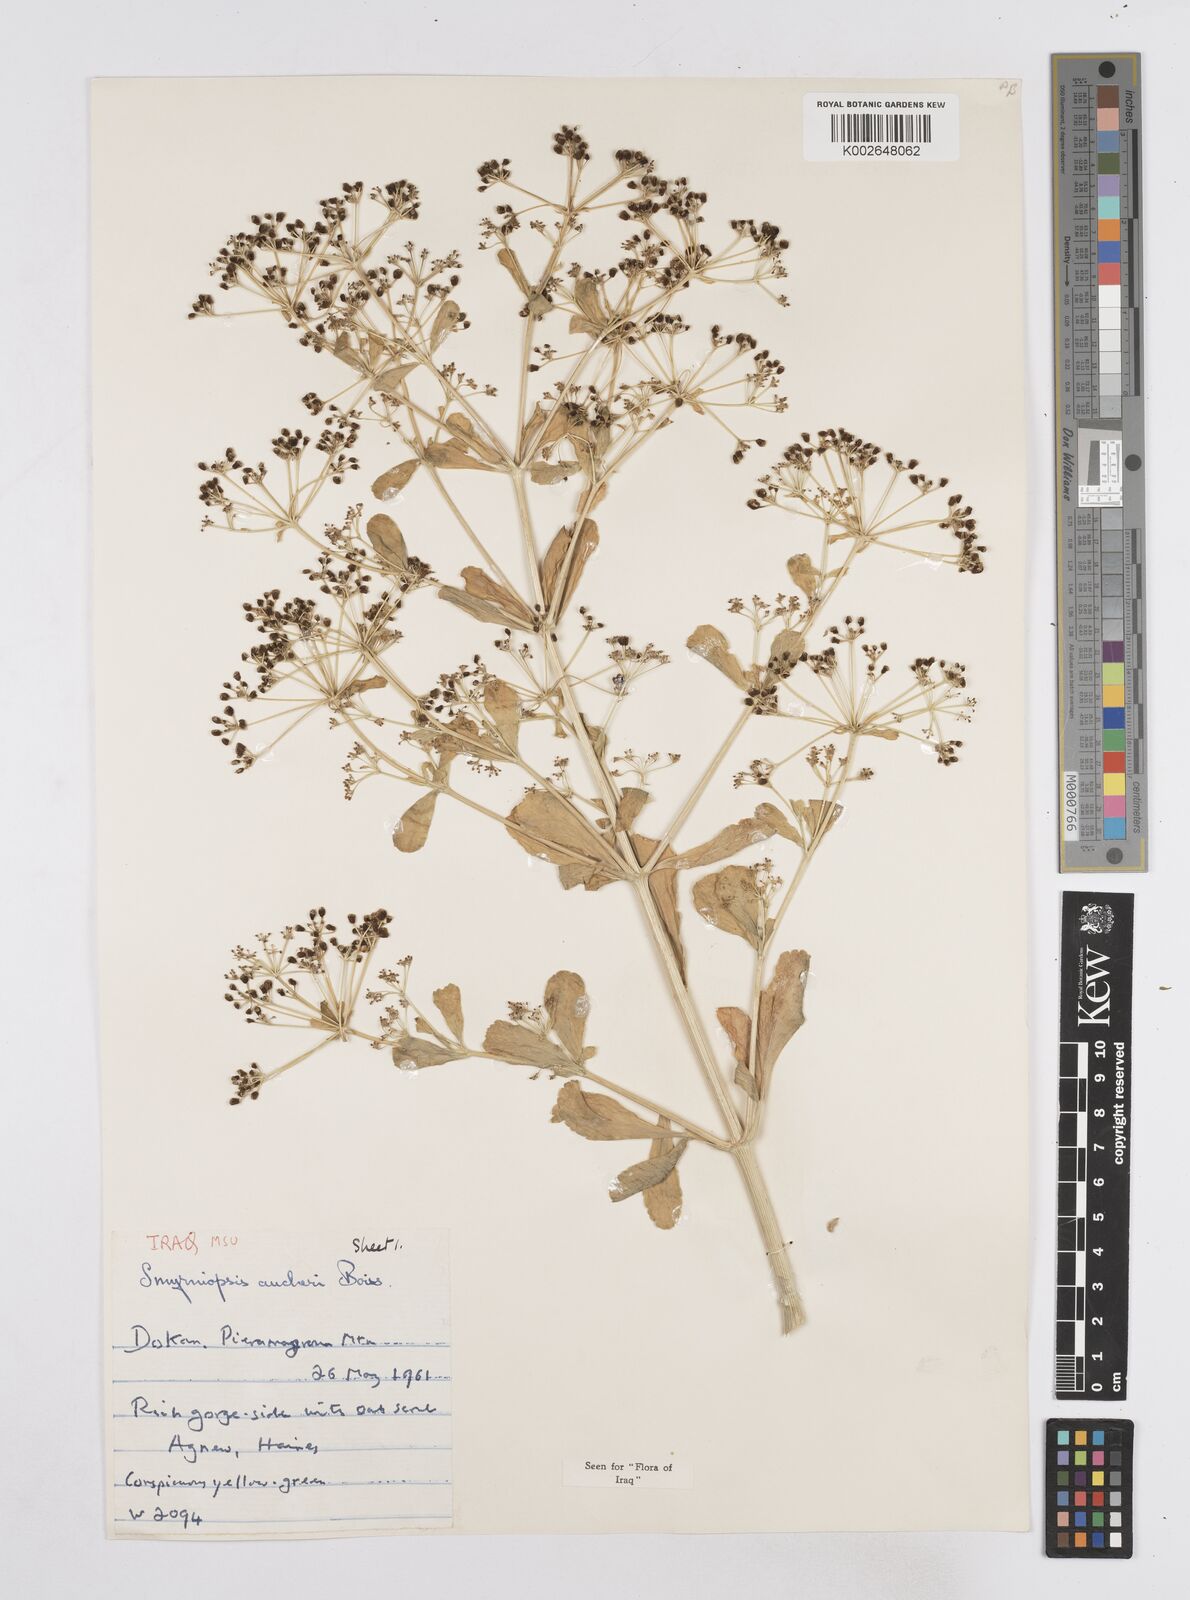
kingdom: Plantae
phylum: Tracheophyta
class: Magnoliopsida
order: Apiales
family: Apiaceae
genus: Smyrniopsis
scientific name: Smyrniopsis aucheri
